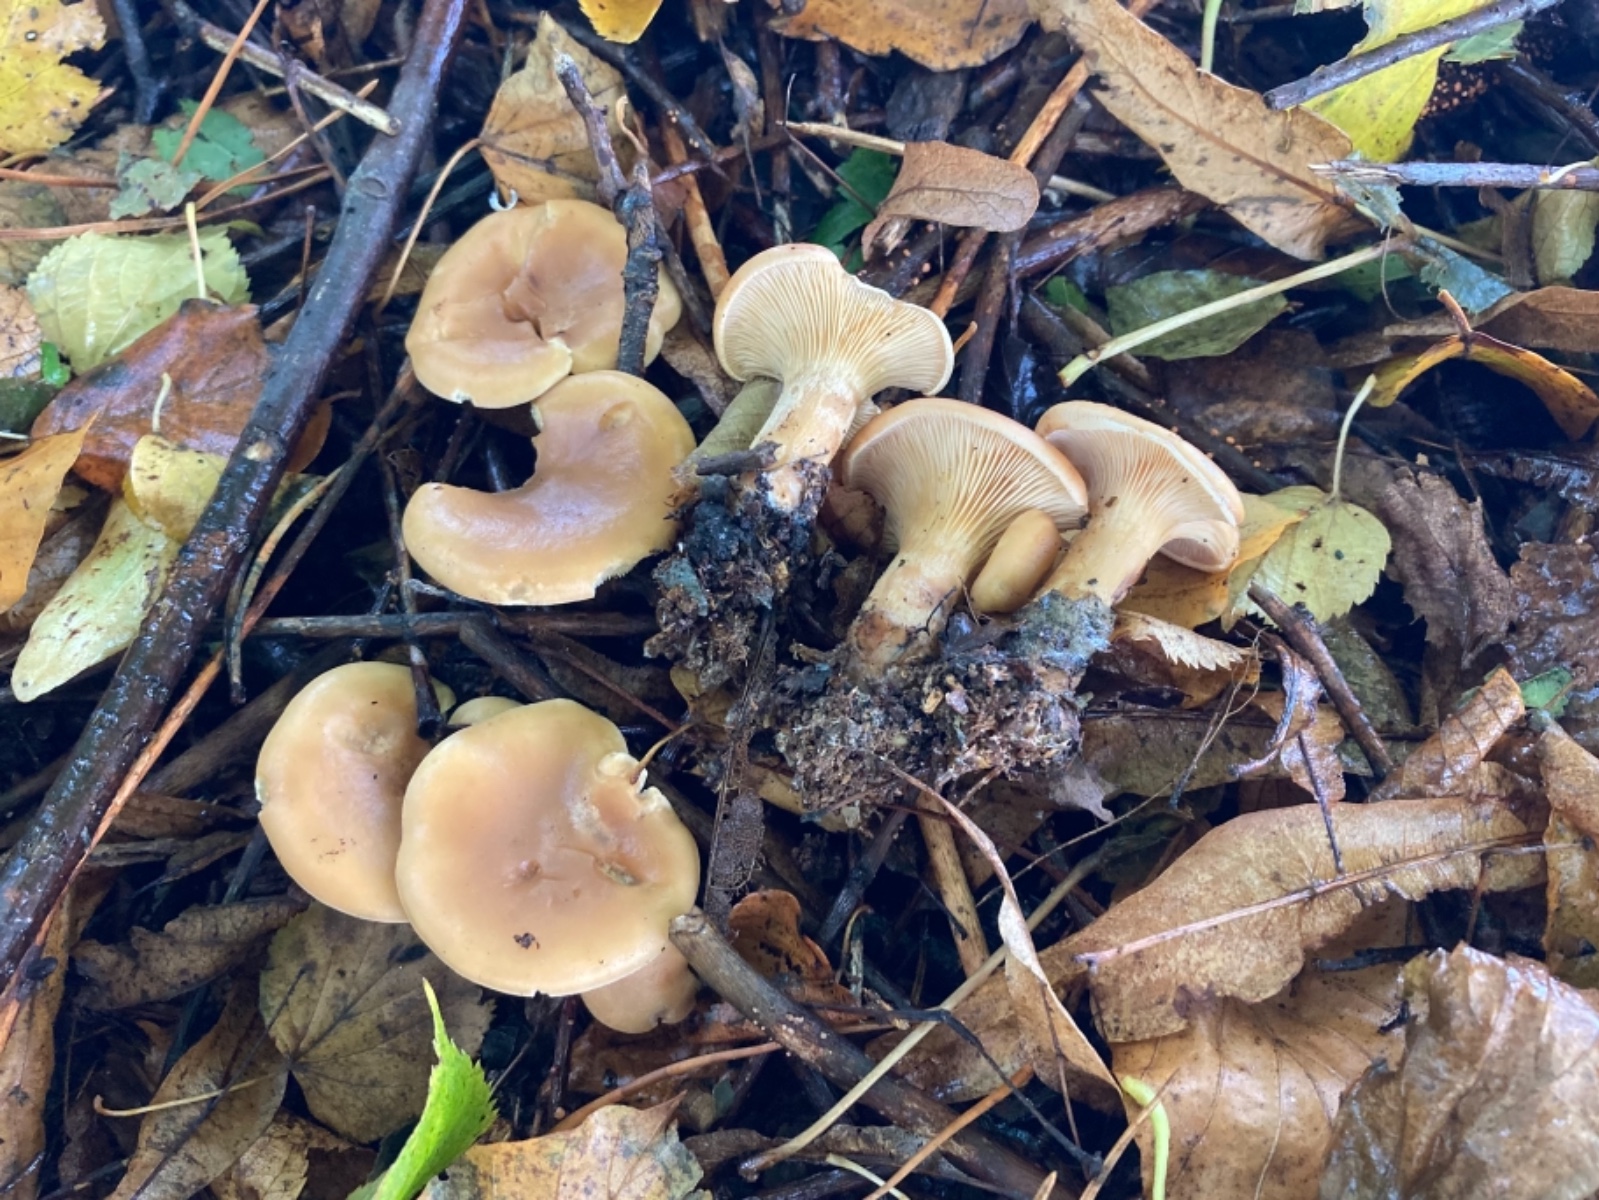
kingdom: Fungi
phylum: Basidiomycota
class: Agaricomycetes
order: Agaricales
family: Tricholomataceae
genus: Paralepista
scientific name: Paralepista flaccida
